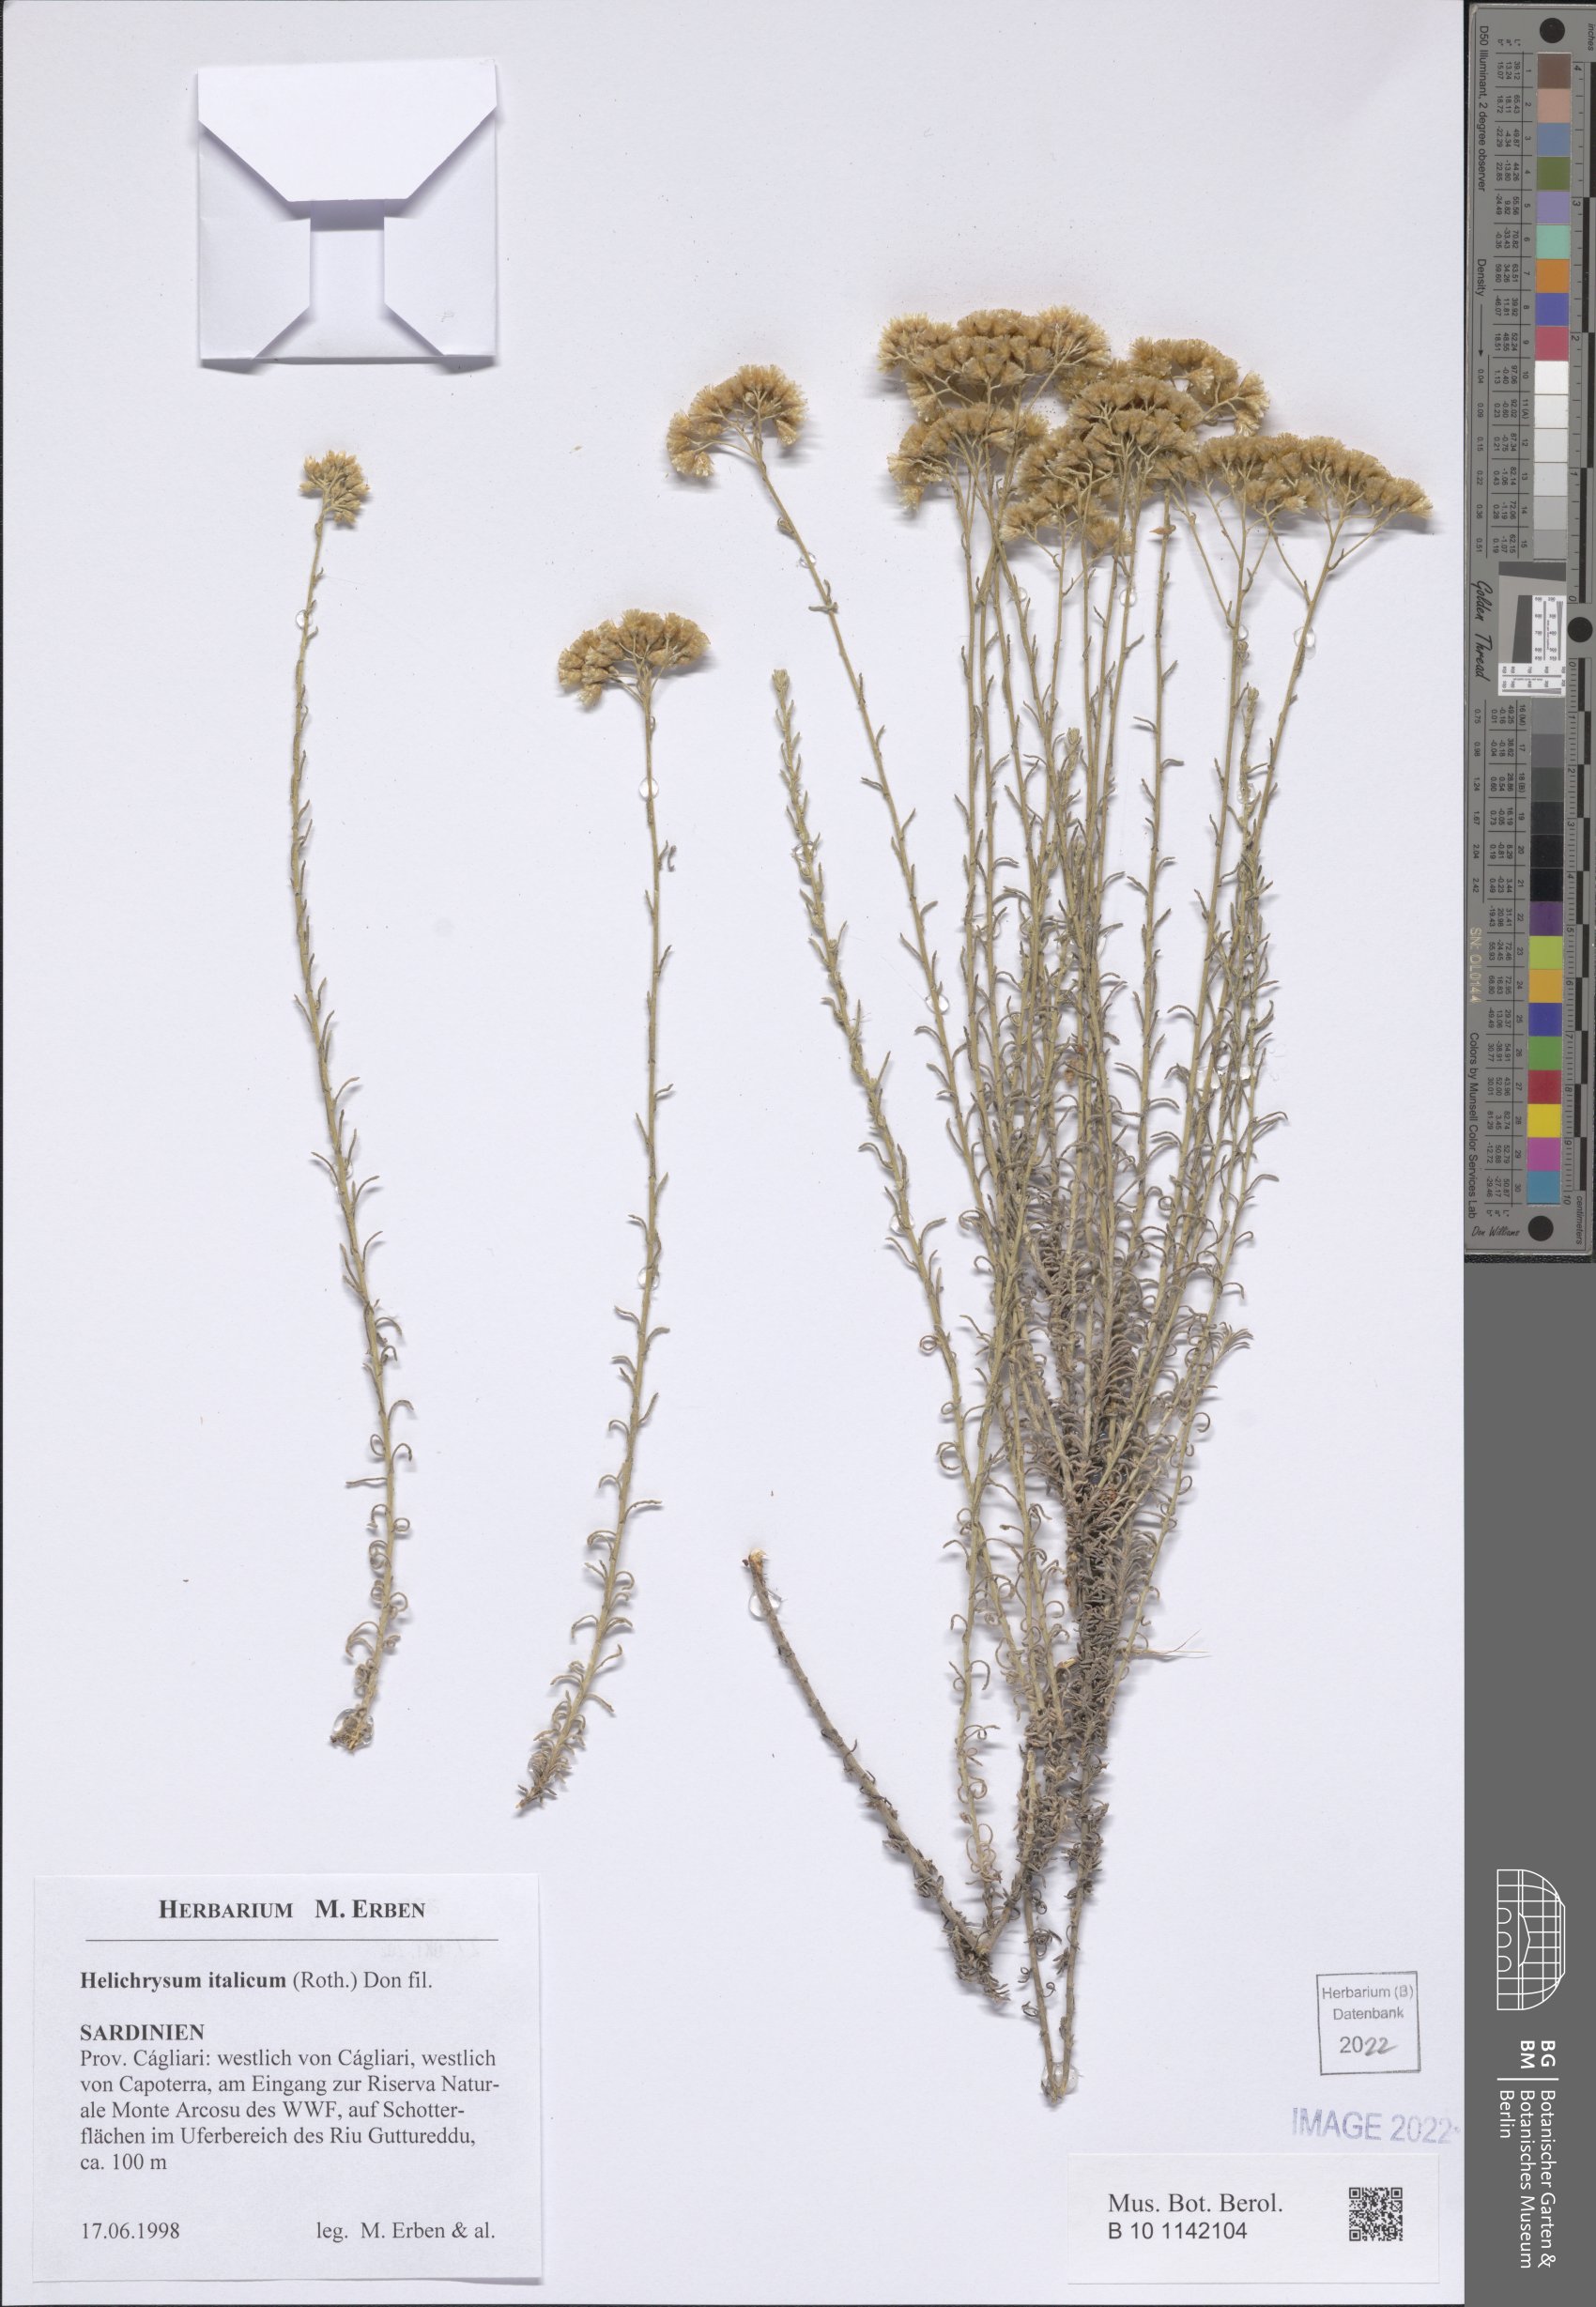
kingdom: Plantae
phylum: Tracheophyta
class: Magnoliopsida
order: Asterales
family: Asteraceae
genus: Helichrysum
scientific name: Helichrysum italicum
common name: Curryplant
